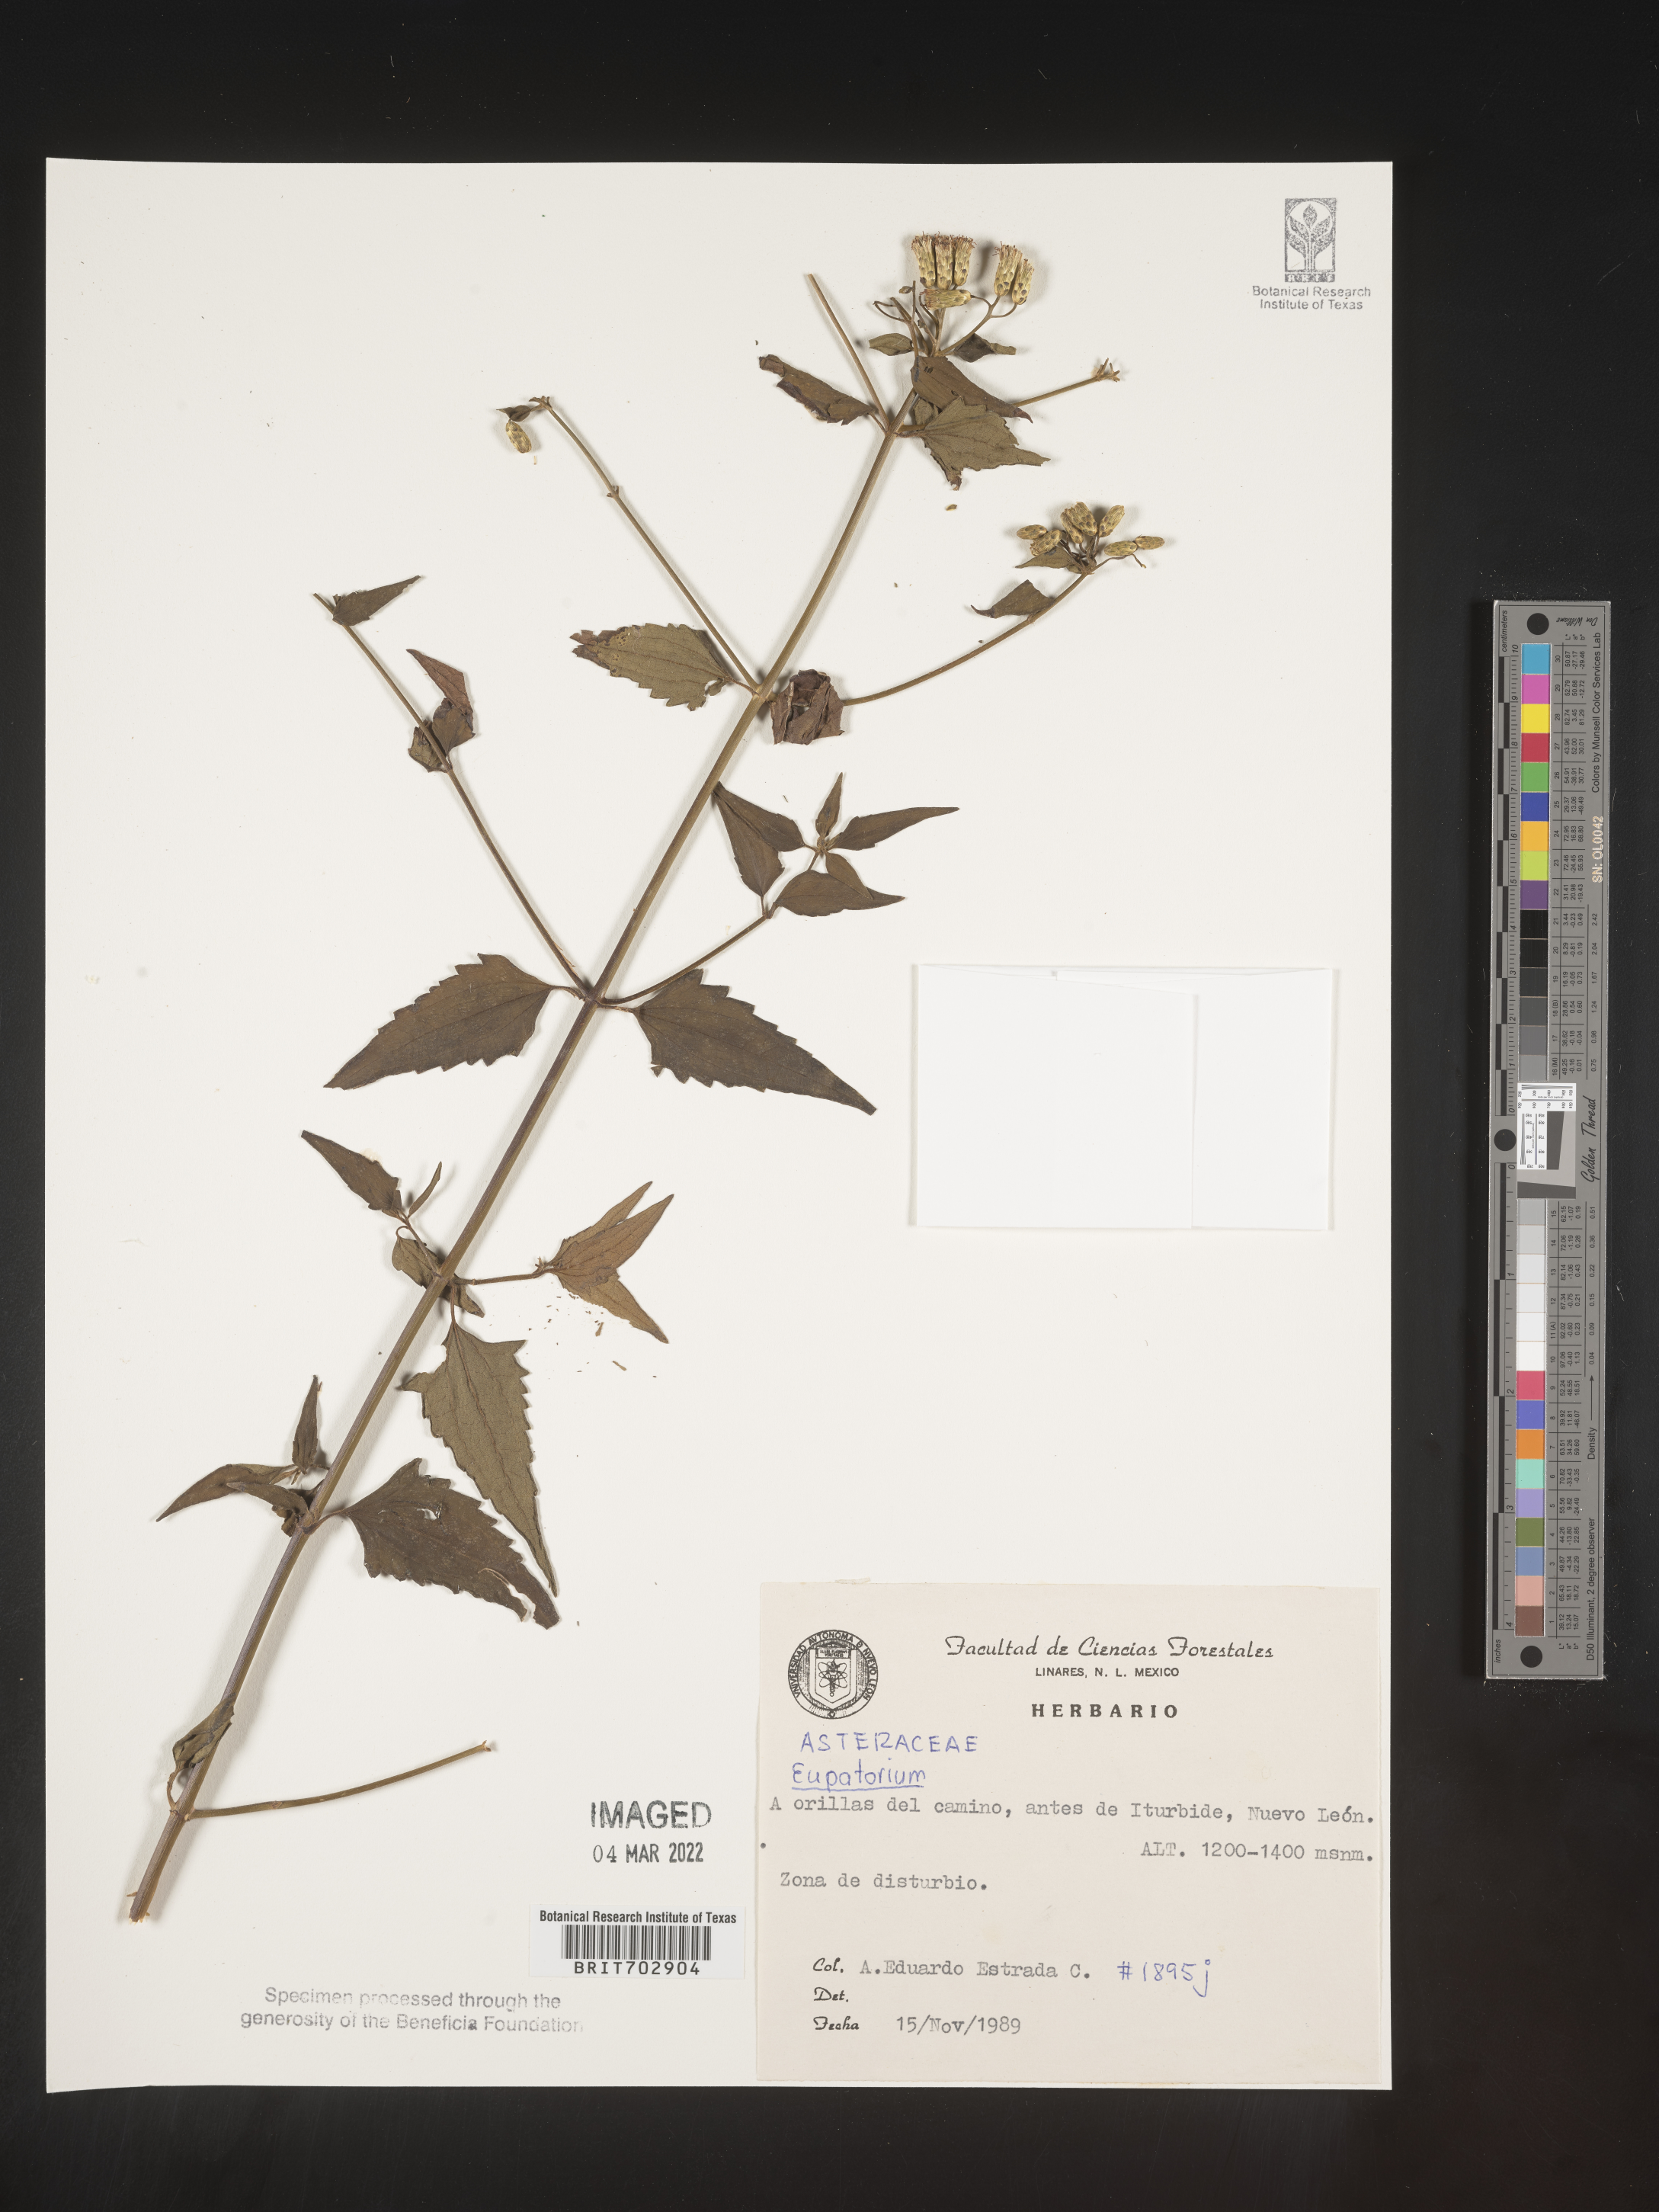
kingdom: Plantae
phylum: Tracheophyta
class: Magnoliopsida
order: Asterales
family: Asteraceae
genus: Eupatorium
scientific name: Eupatorium
